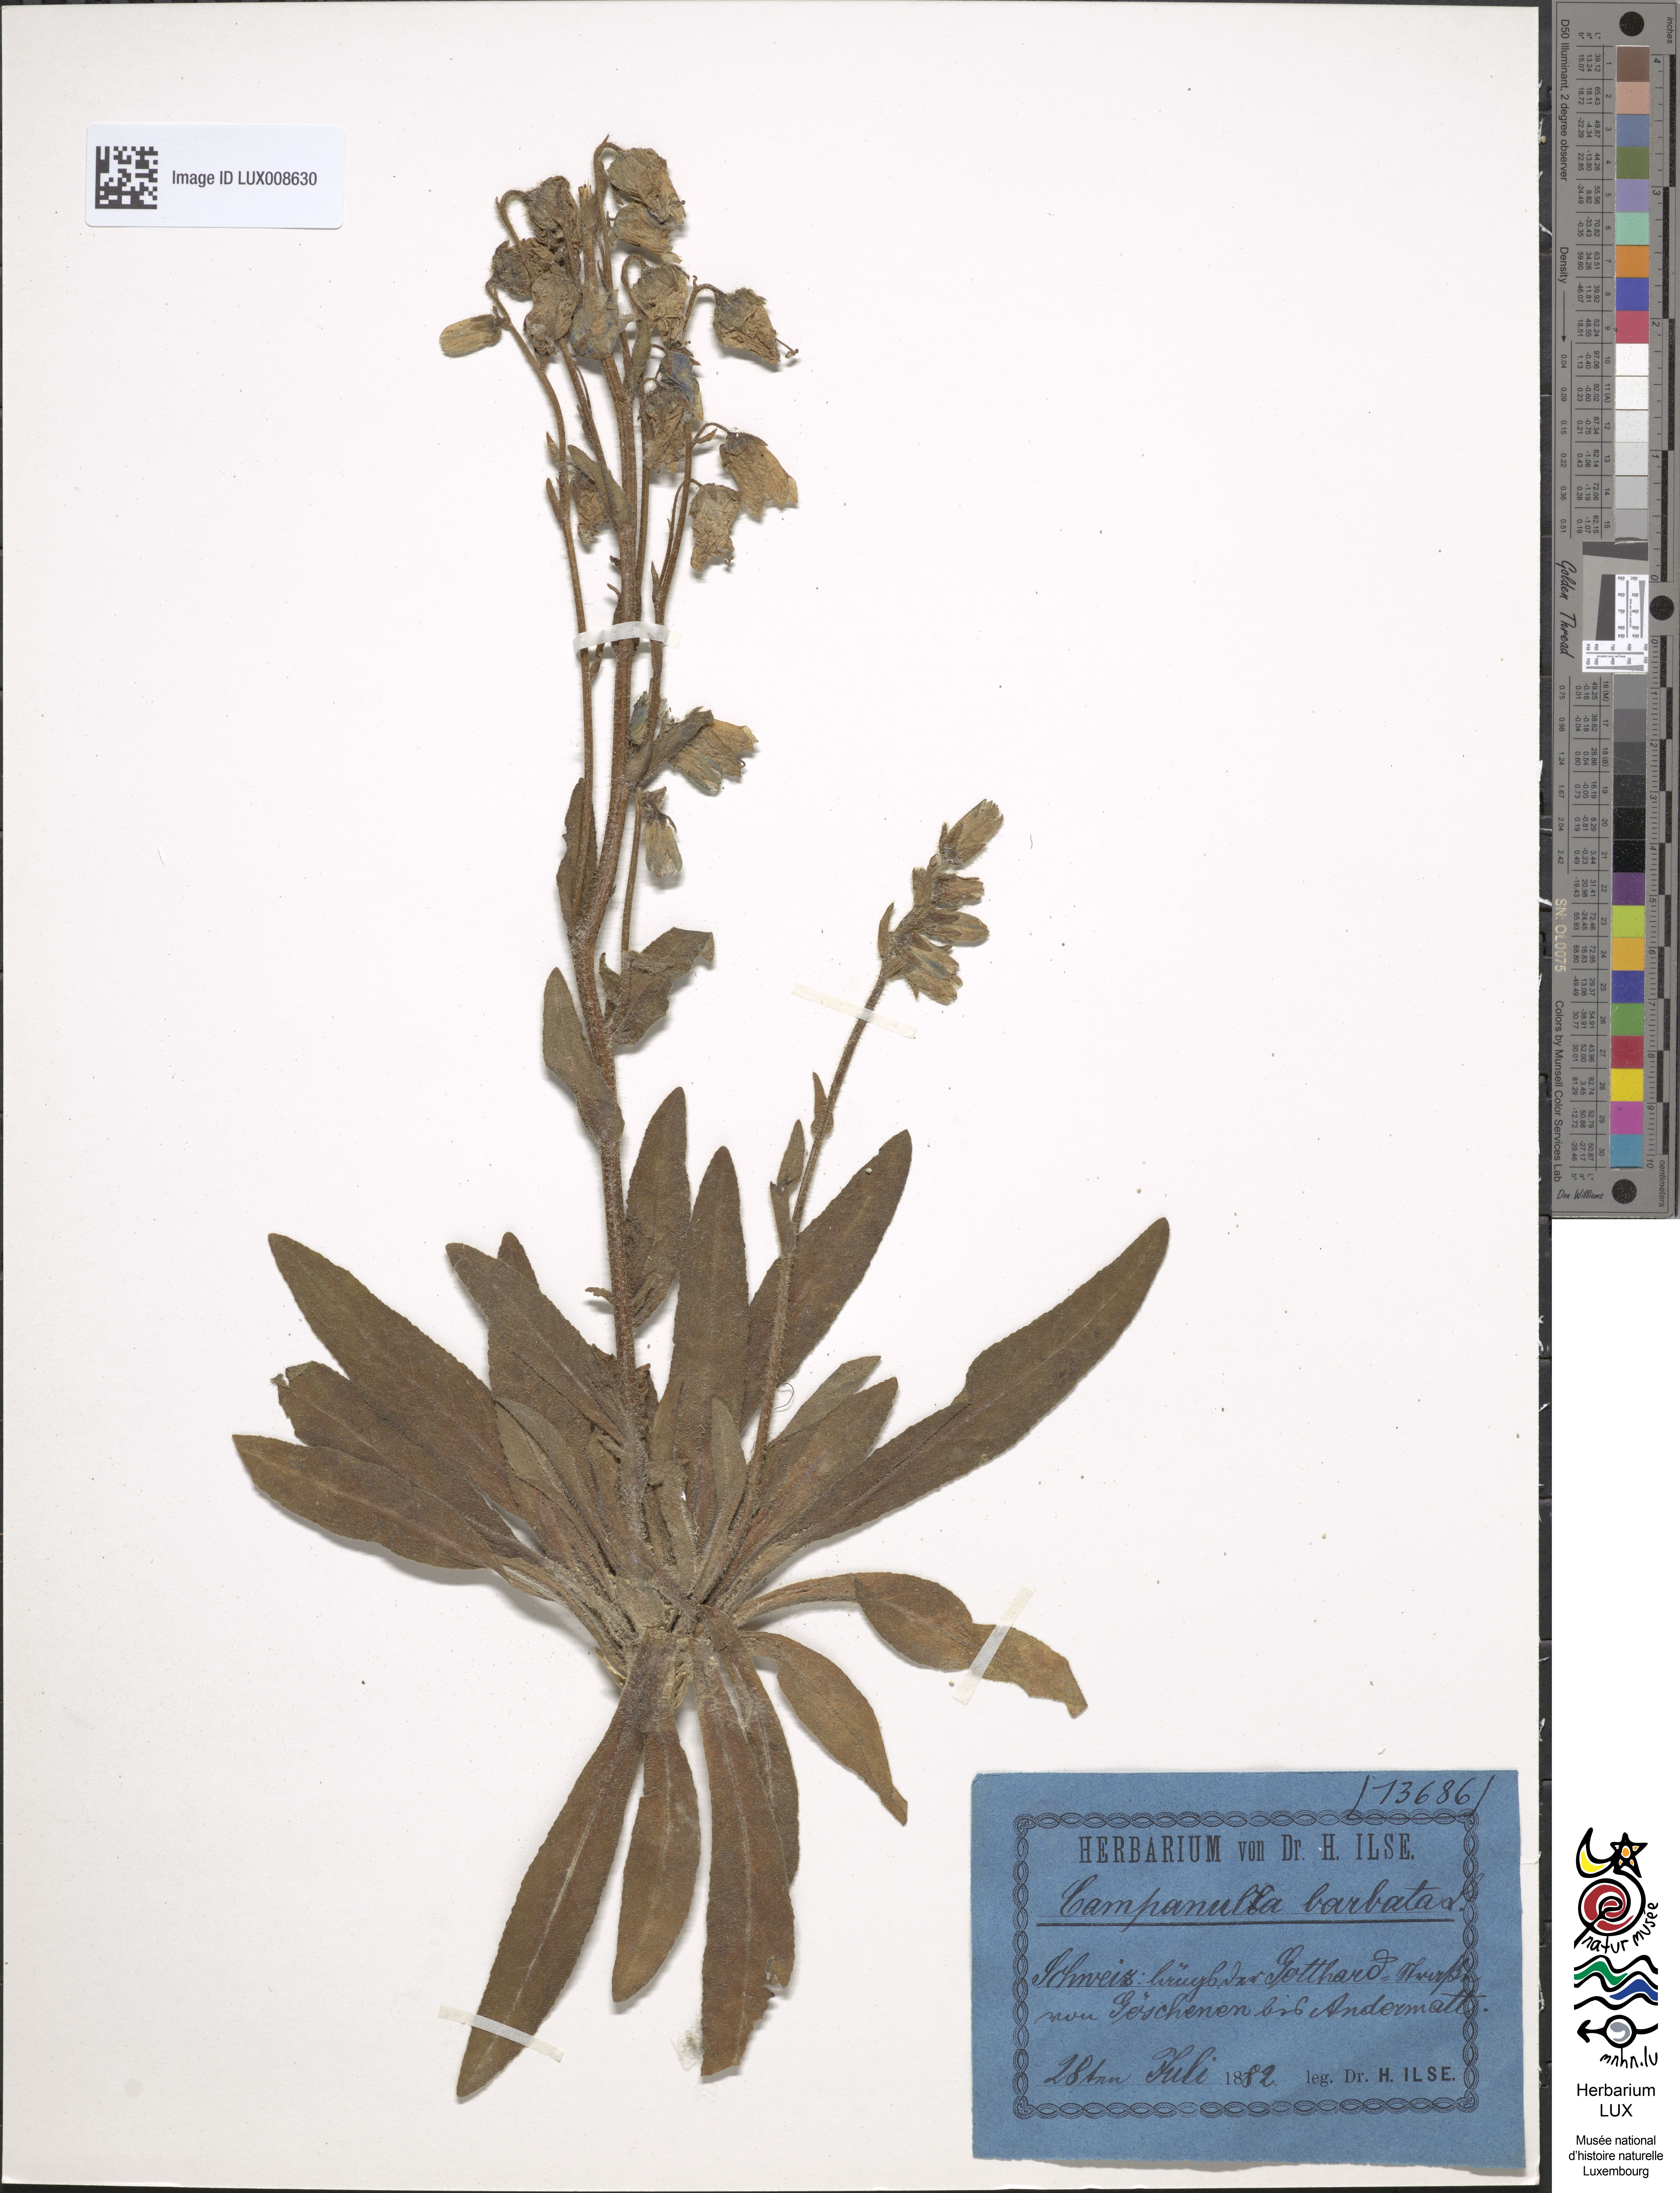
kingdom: Plantae
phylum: Tracheophyta
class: Magnoliopsida
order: Asterales
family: Campanulaceae
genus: Campanula
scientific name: Campanula barbata
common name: Bearded bellflower
